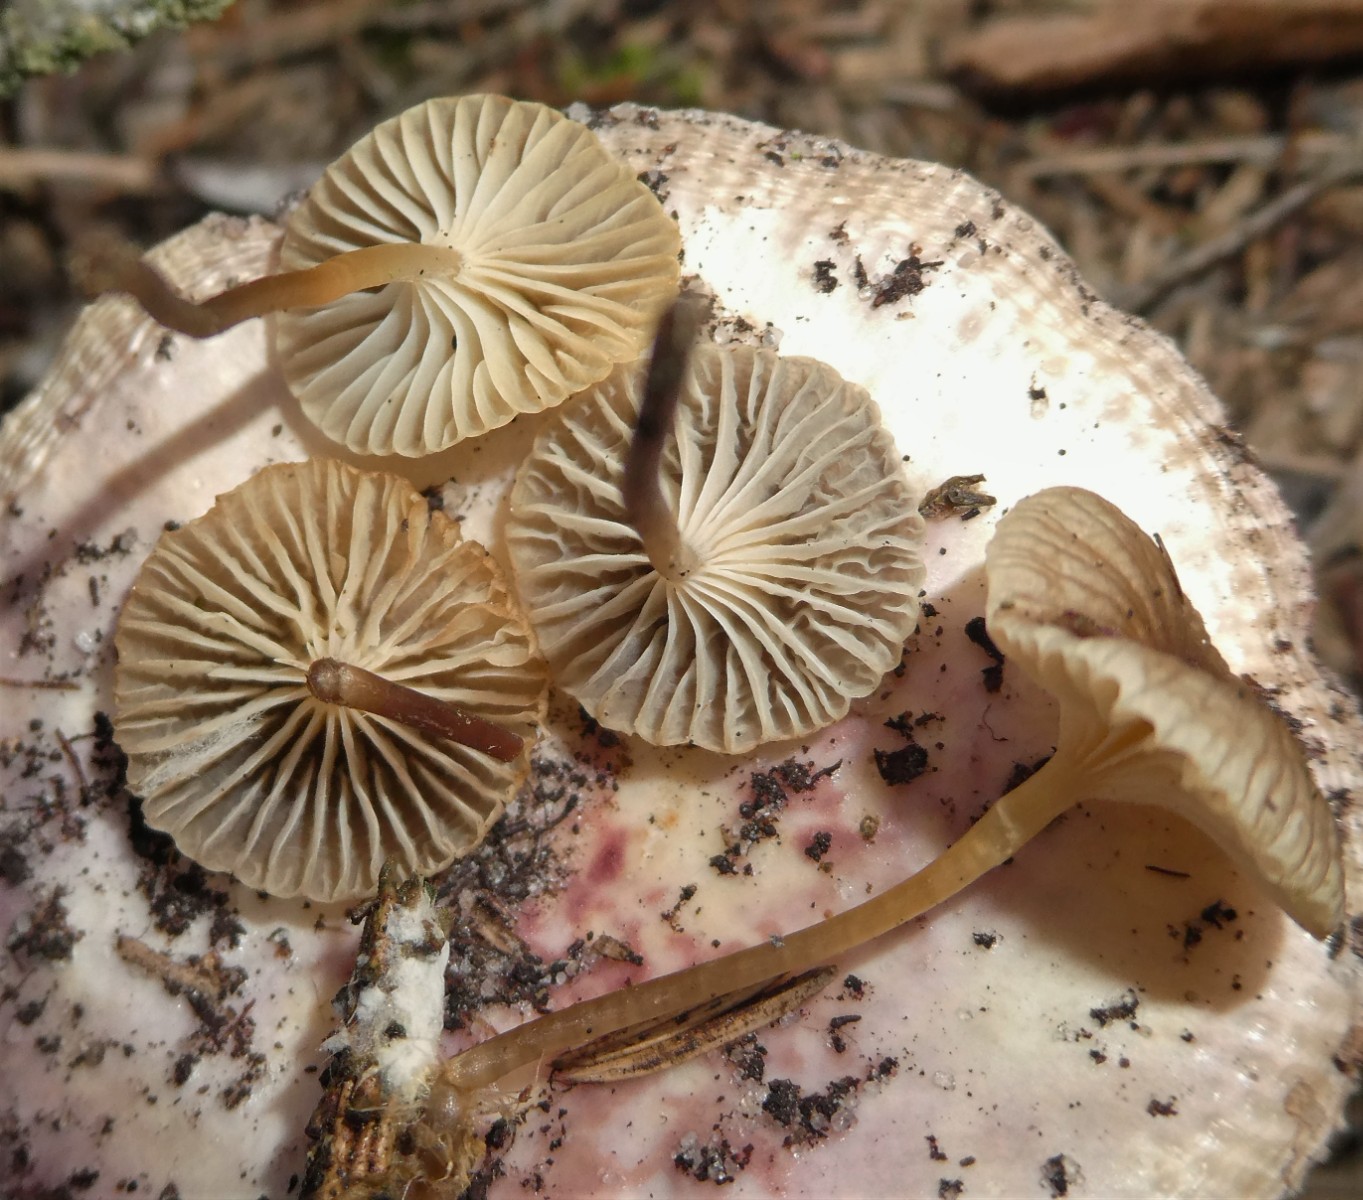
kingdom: Fungi
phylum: Basidiomycota
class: Agaricomycetes
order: Agaricales
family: Mycenaceae
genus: Mycena
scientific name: Mycena vulgaris
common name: klæbrig huesvamp
